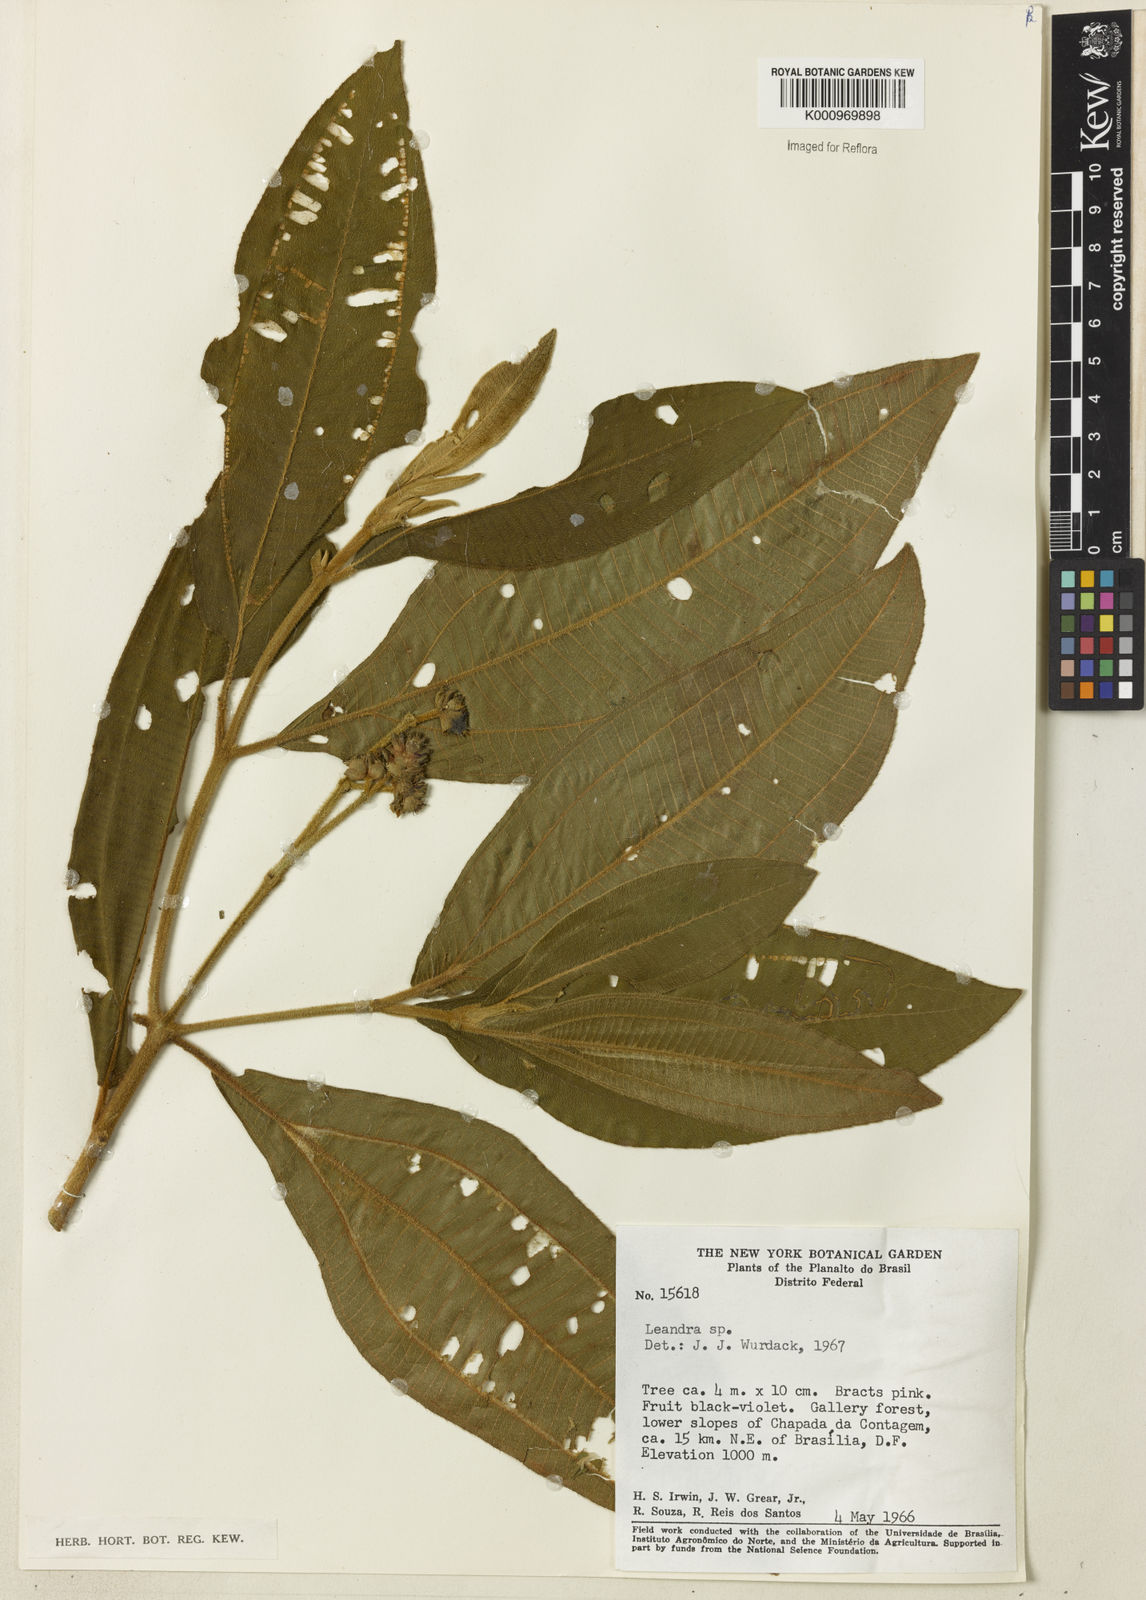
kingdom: Plantae
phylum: Tracheophyta
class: Magnoliopsida
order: Myrtales
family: Melastomataceae
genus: Miconia
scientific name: Miconia
